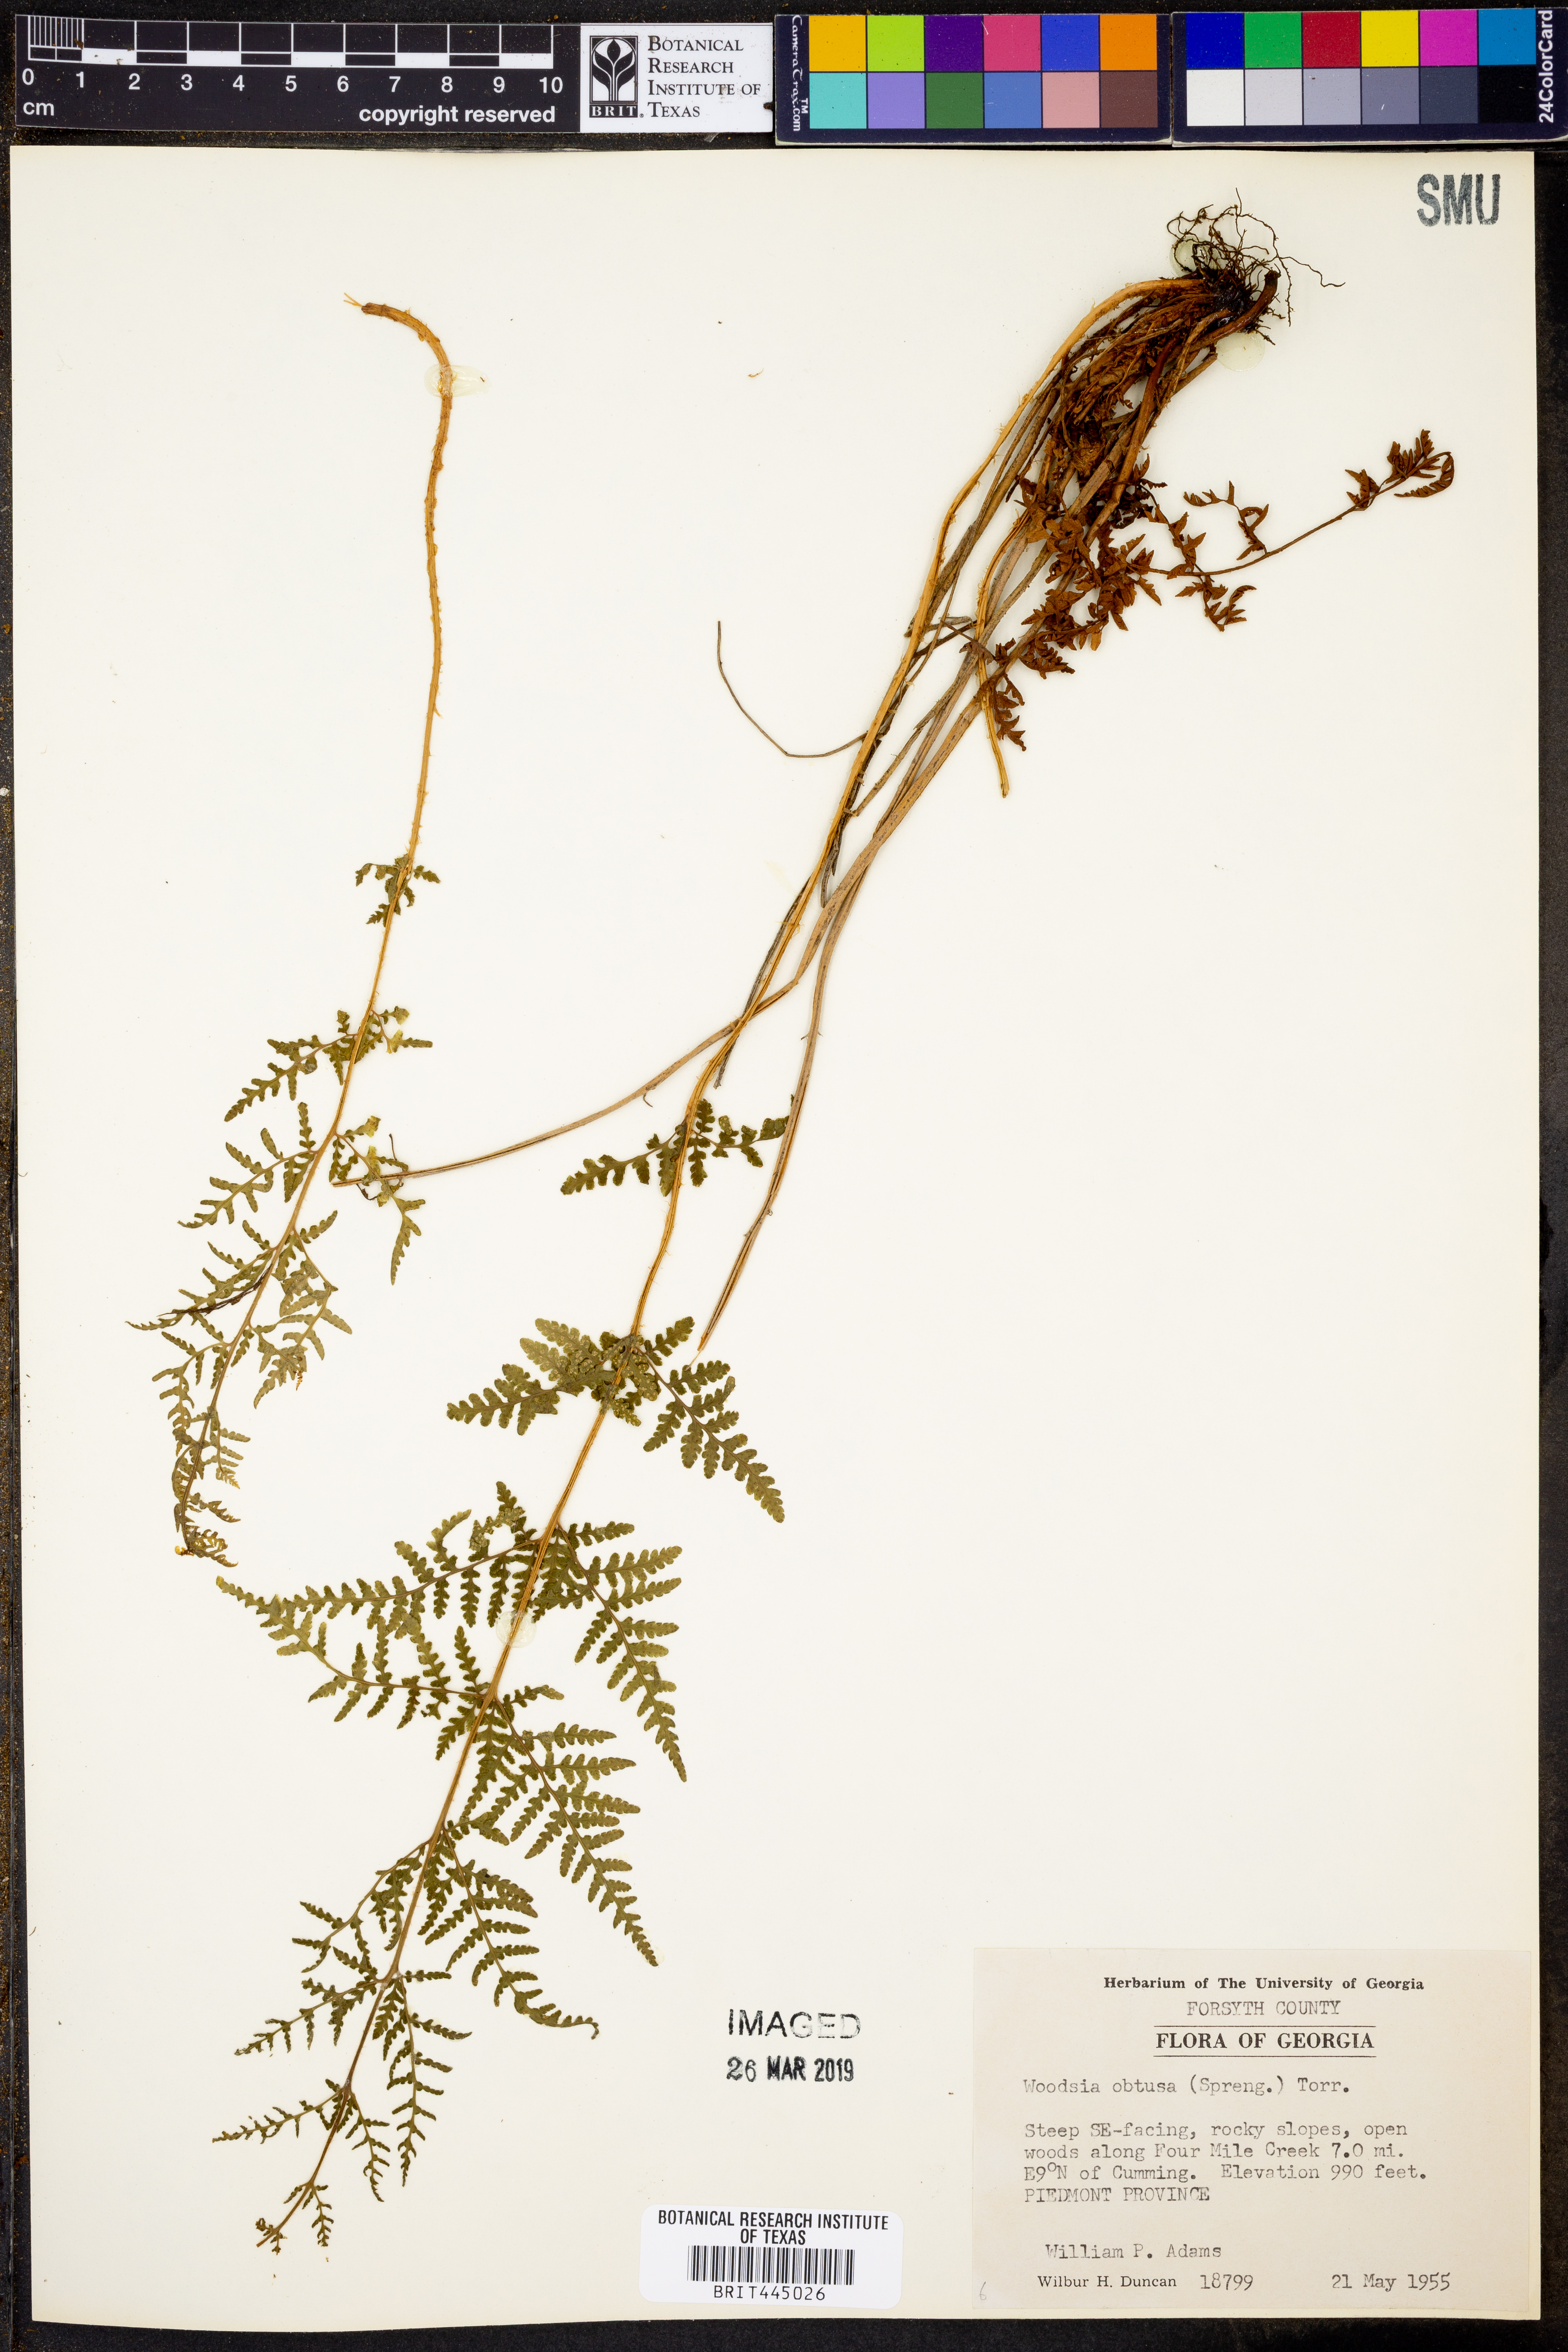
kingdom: Plantae
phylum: Tracheophyta
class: Polypodiopsida
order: Polypodiales
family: Woodsiaceae
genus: Physematium
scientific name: Physematium obtusum
